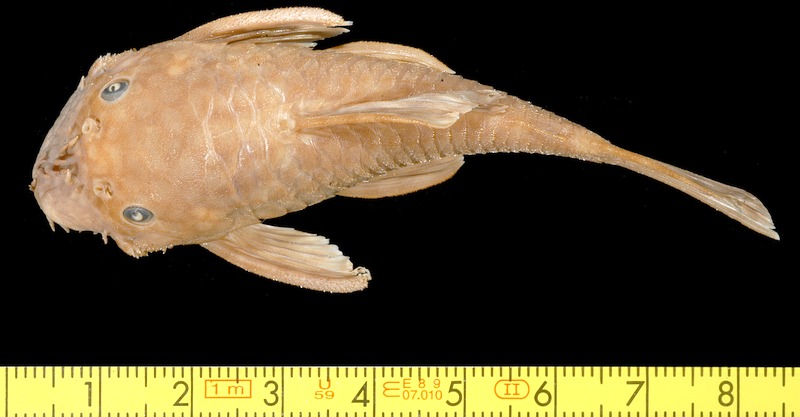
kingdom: Animalia
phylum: Chordata
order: Siluriformes
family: Loricariidae
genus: Ancistrus
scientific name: Ancistrus damasceni
